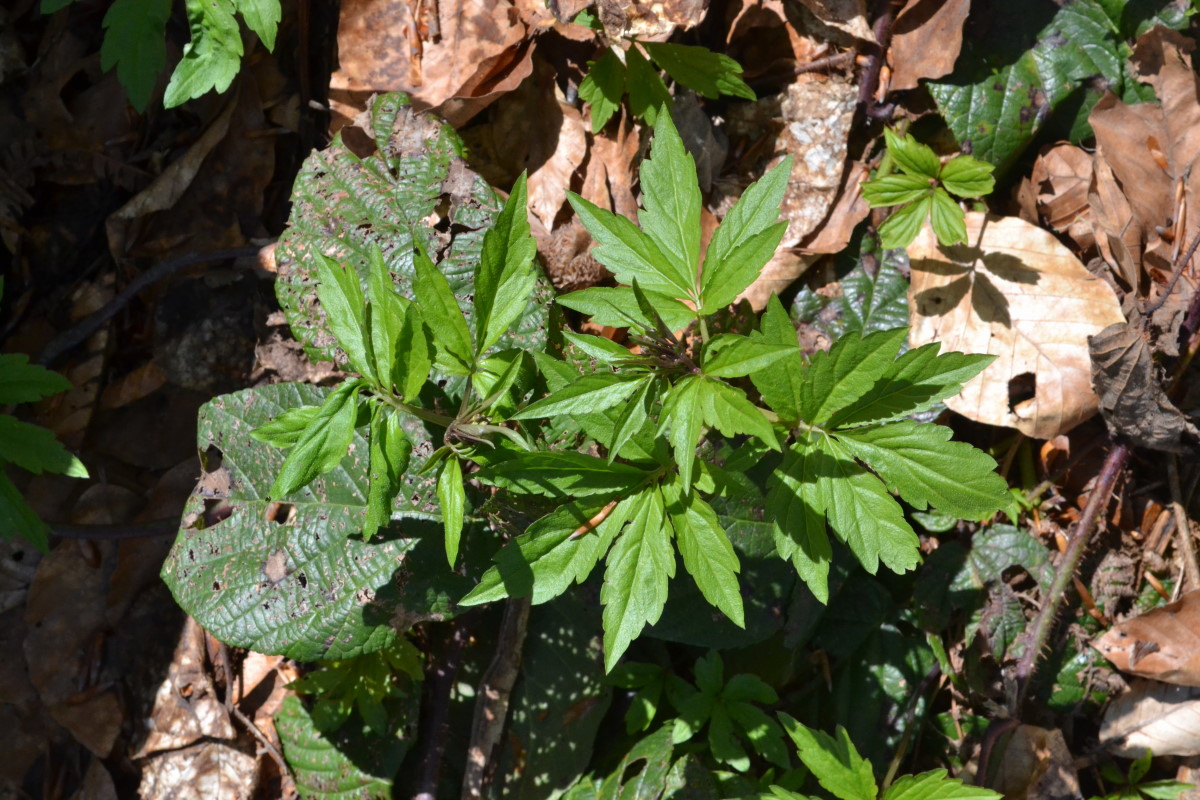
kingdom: Plantae
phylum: Tracheophyta
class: Magnoliopsida
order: Brassicales
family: Brassicaceae
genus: Cardamine
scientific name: Cardamine quinquefolia
